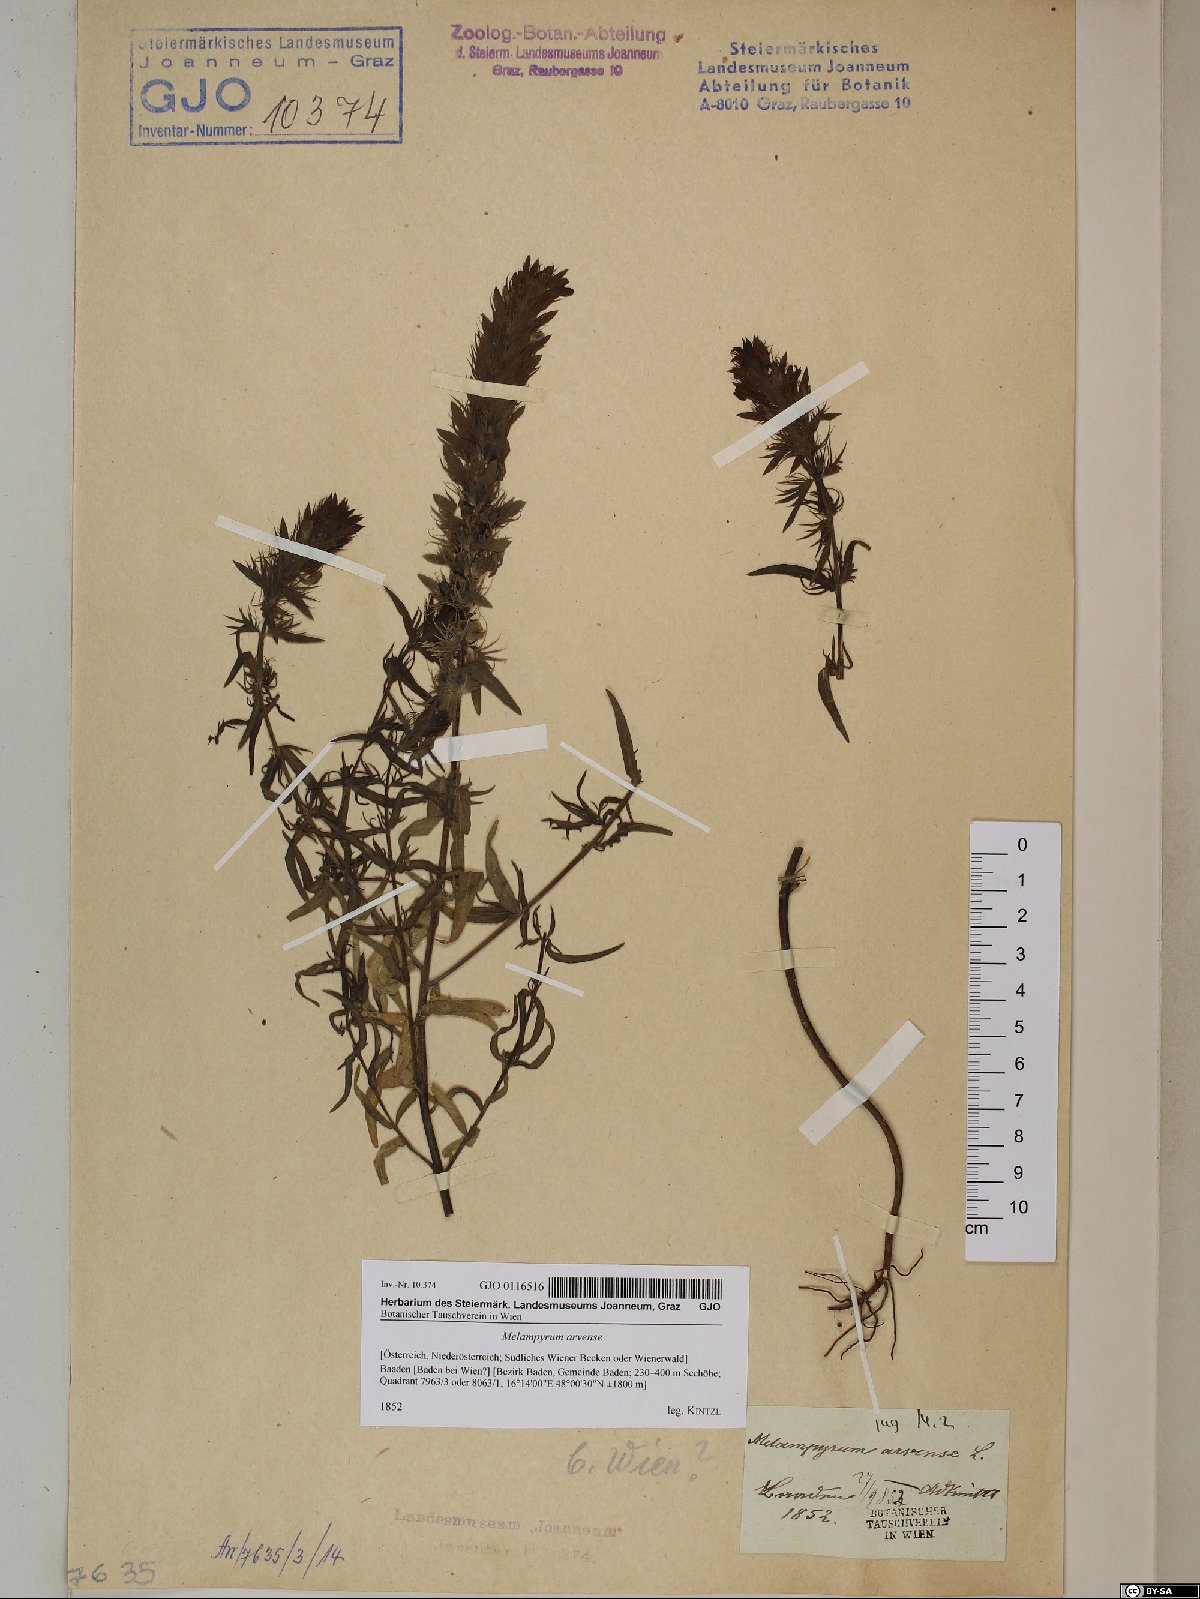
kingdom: Plantae
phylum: Tracheophyta
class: Magnoliopsida
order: Lamiales
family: Orobanchaceae
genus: Melampyrum
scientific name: Melampyrum arvense
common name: Field cow-wheat
